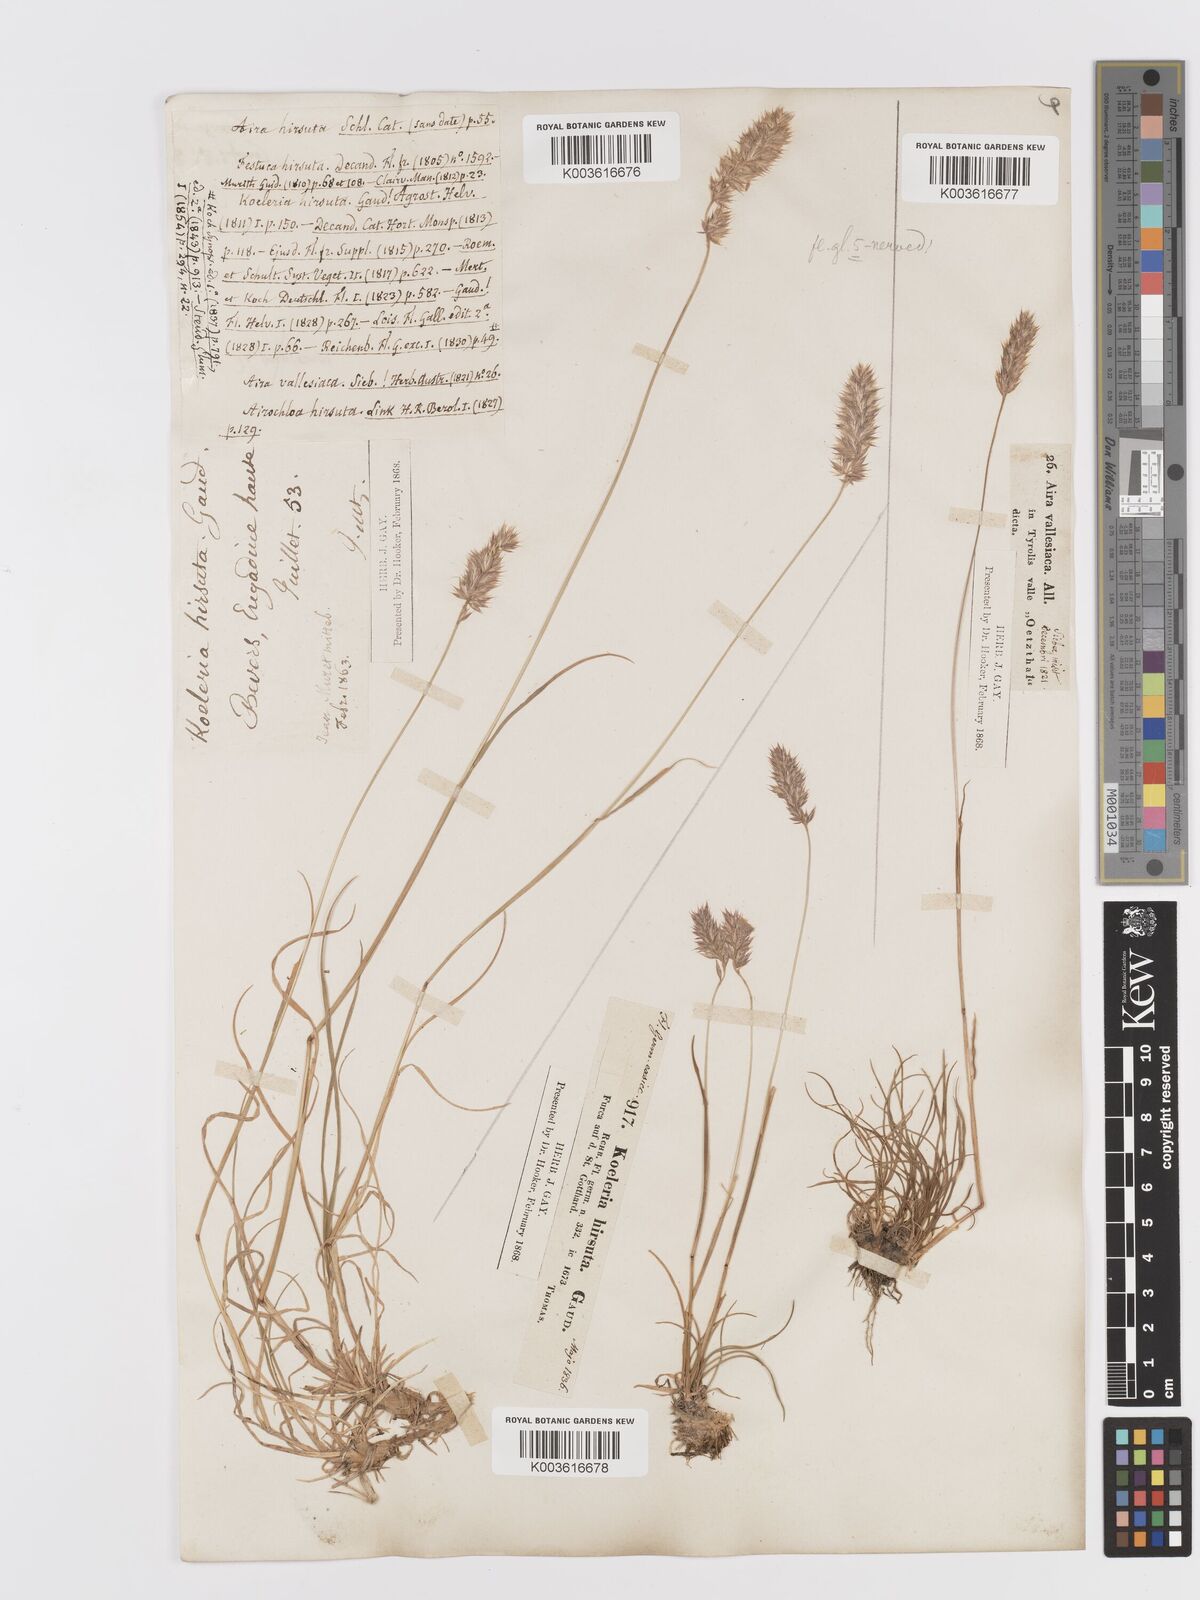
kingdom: Plantae
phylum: Tracheophyta
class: Liliopsida
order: Poales
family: Poaceae
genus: Koeleria
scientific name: Koeleria hirsuta
